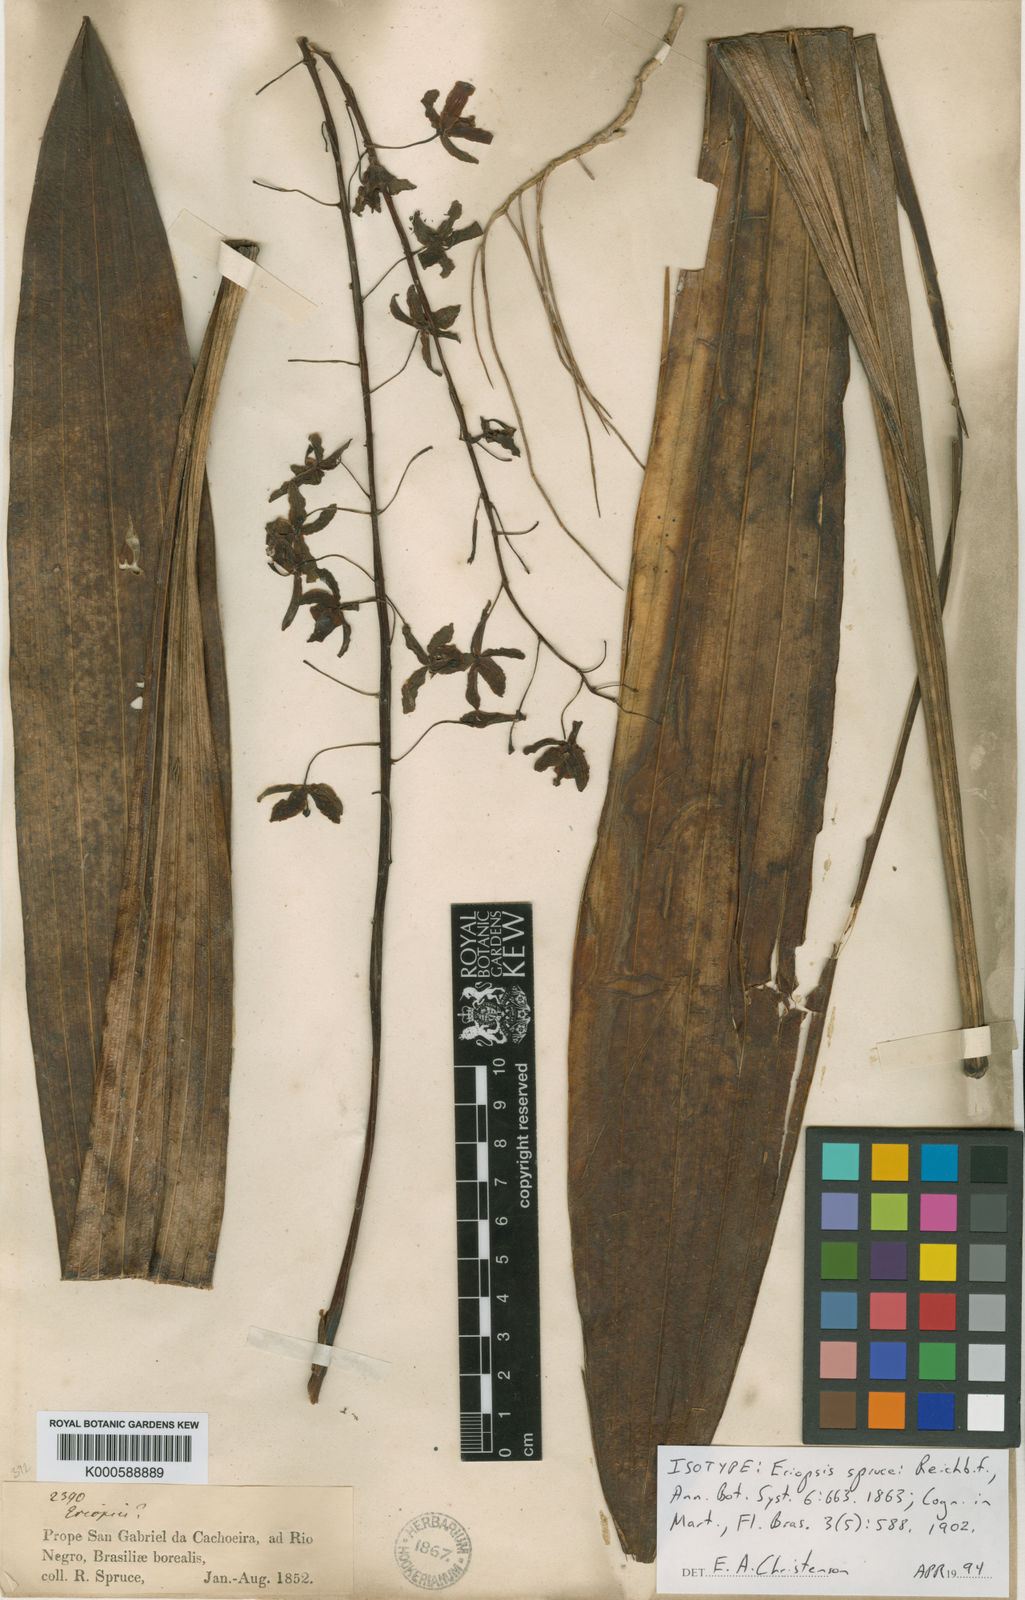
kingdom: Plantae
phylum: Tracheophyta
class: Liliopsida
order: Asparagales
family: Orchidaceae
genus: Eriopsis
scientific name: Eriopsis altissima
